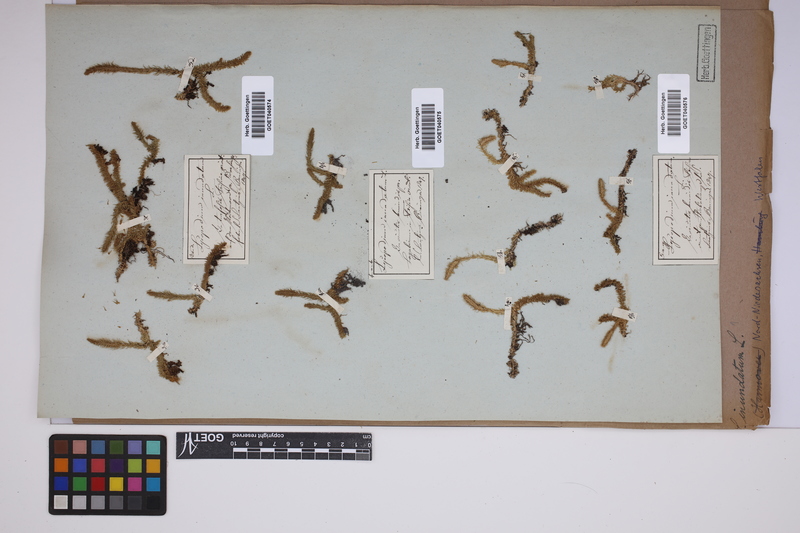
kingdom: Plantae
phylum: Tracheophyta
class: Lycopodiopsida
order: Lycopodiales
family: Lycopodiaceae
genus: Lycopodiella
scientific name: Lycopodiella inundata
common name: Marsh clubmoss
